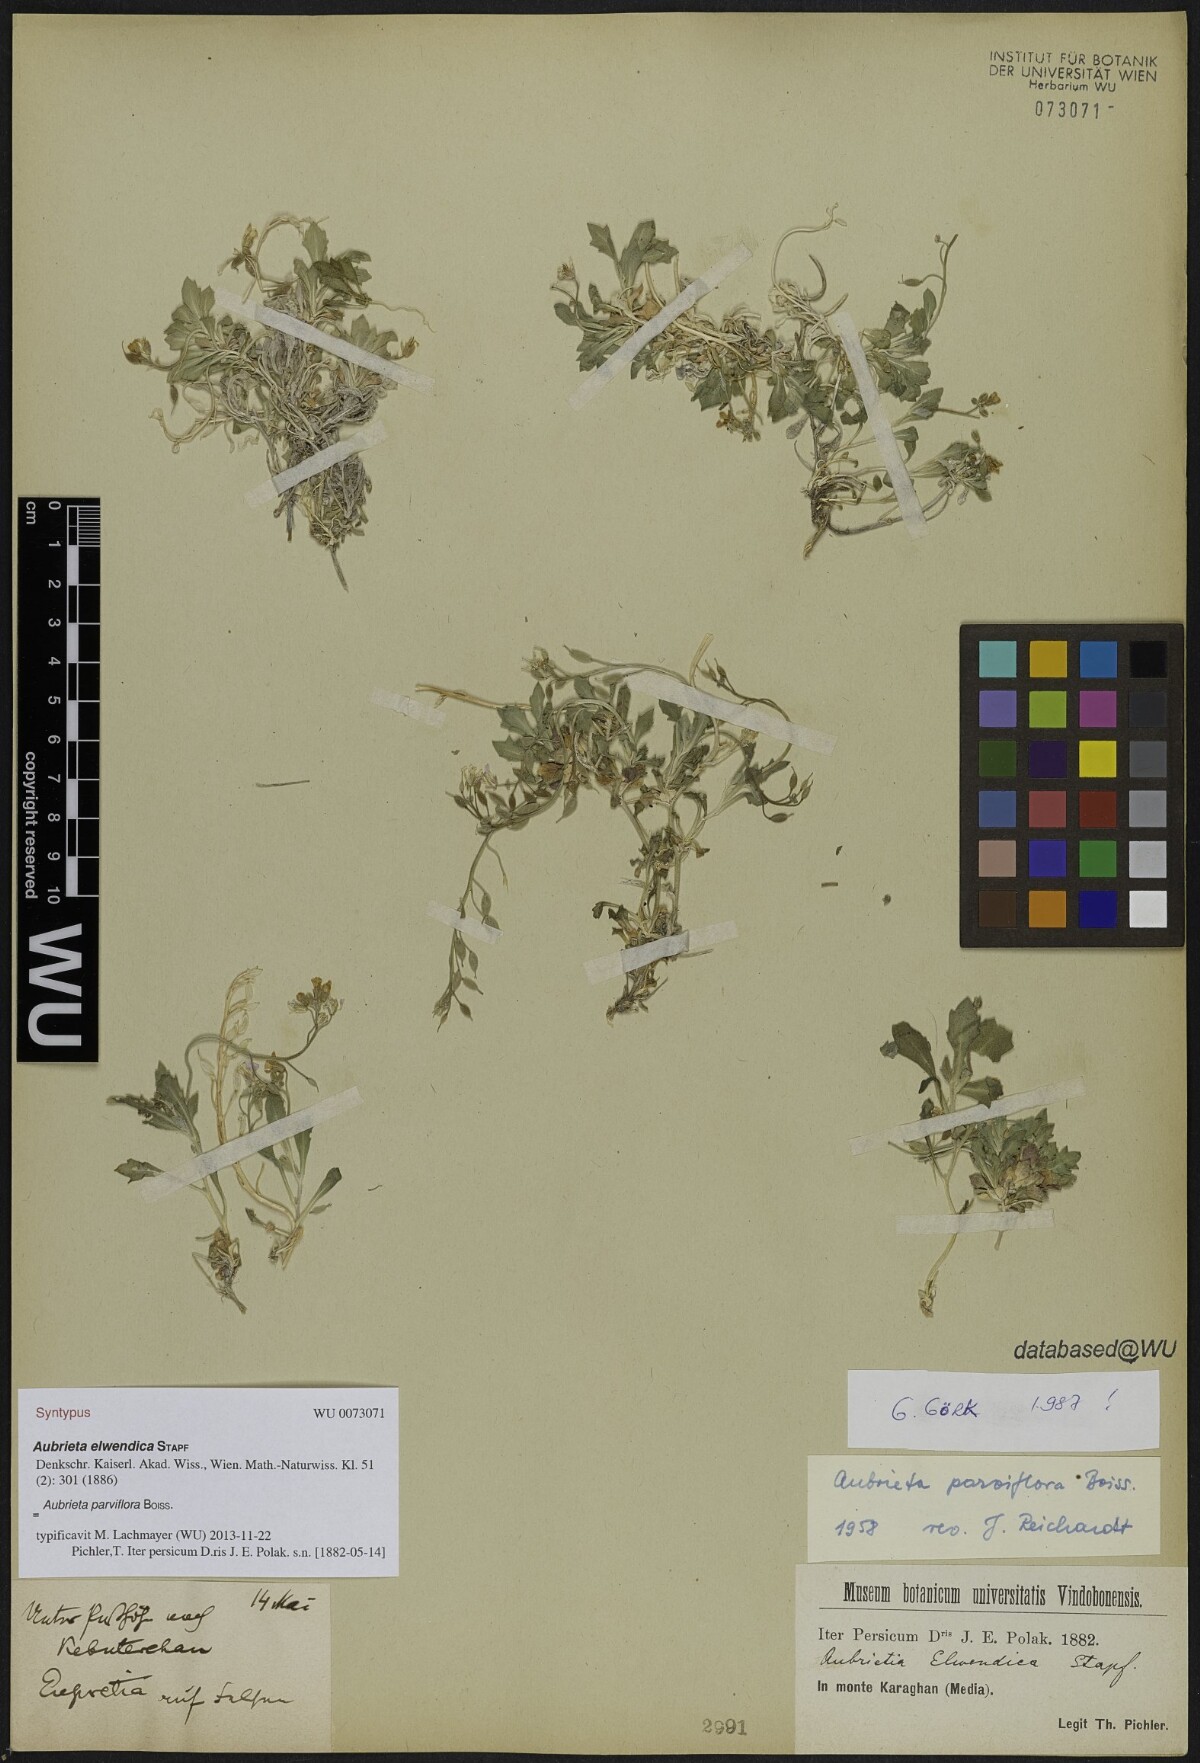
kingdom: Plantae
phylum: Tracheophyta
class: Magnoliopsida
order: Brassicales
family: Brassicaceae
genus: Aubrieta
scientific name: Aubrieta parviflora
